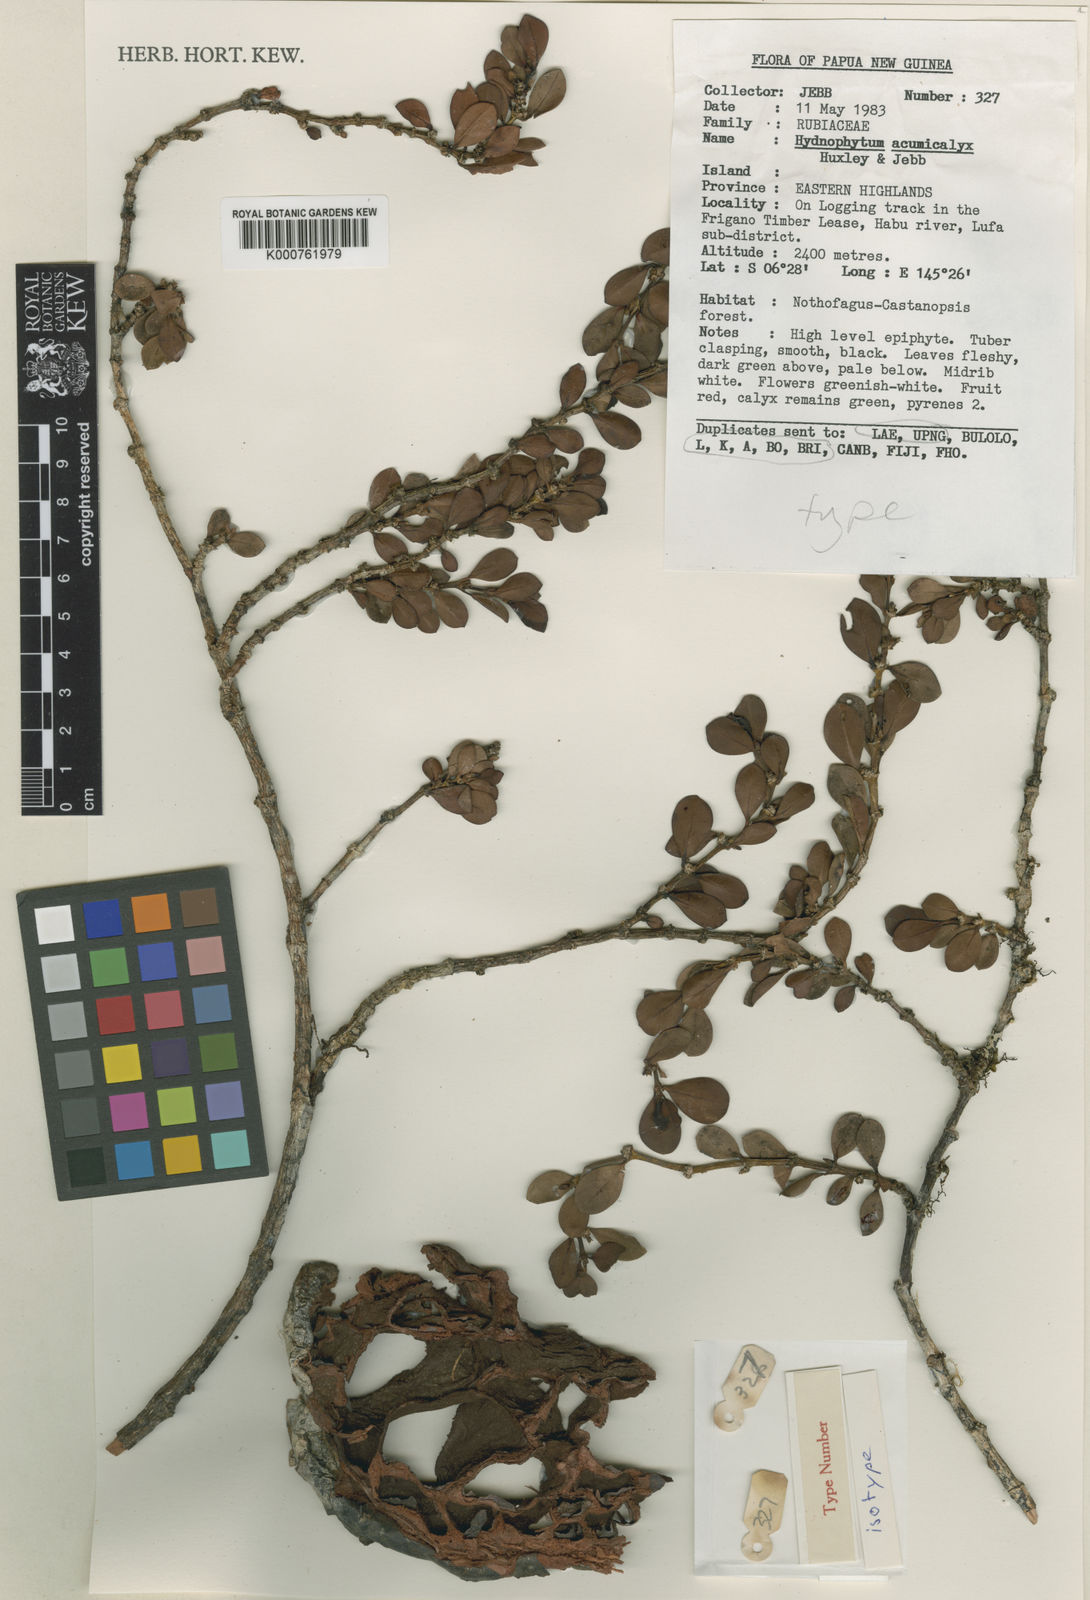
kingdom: Plantae
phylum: Tracheophyta
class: Magnoliopsida
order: Gentianales
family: Rubiaceae
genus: Hydnophytum
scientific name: Hydnophytum
